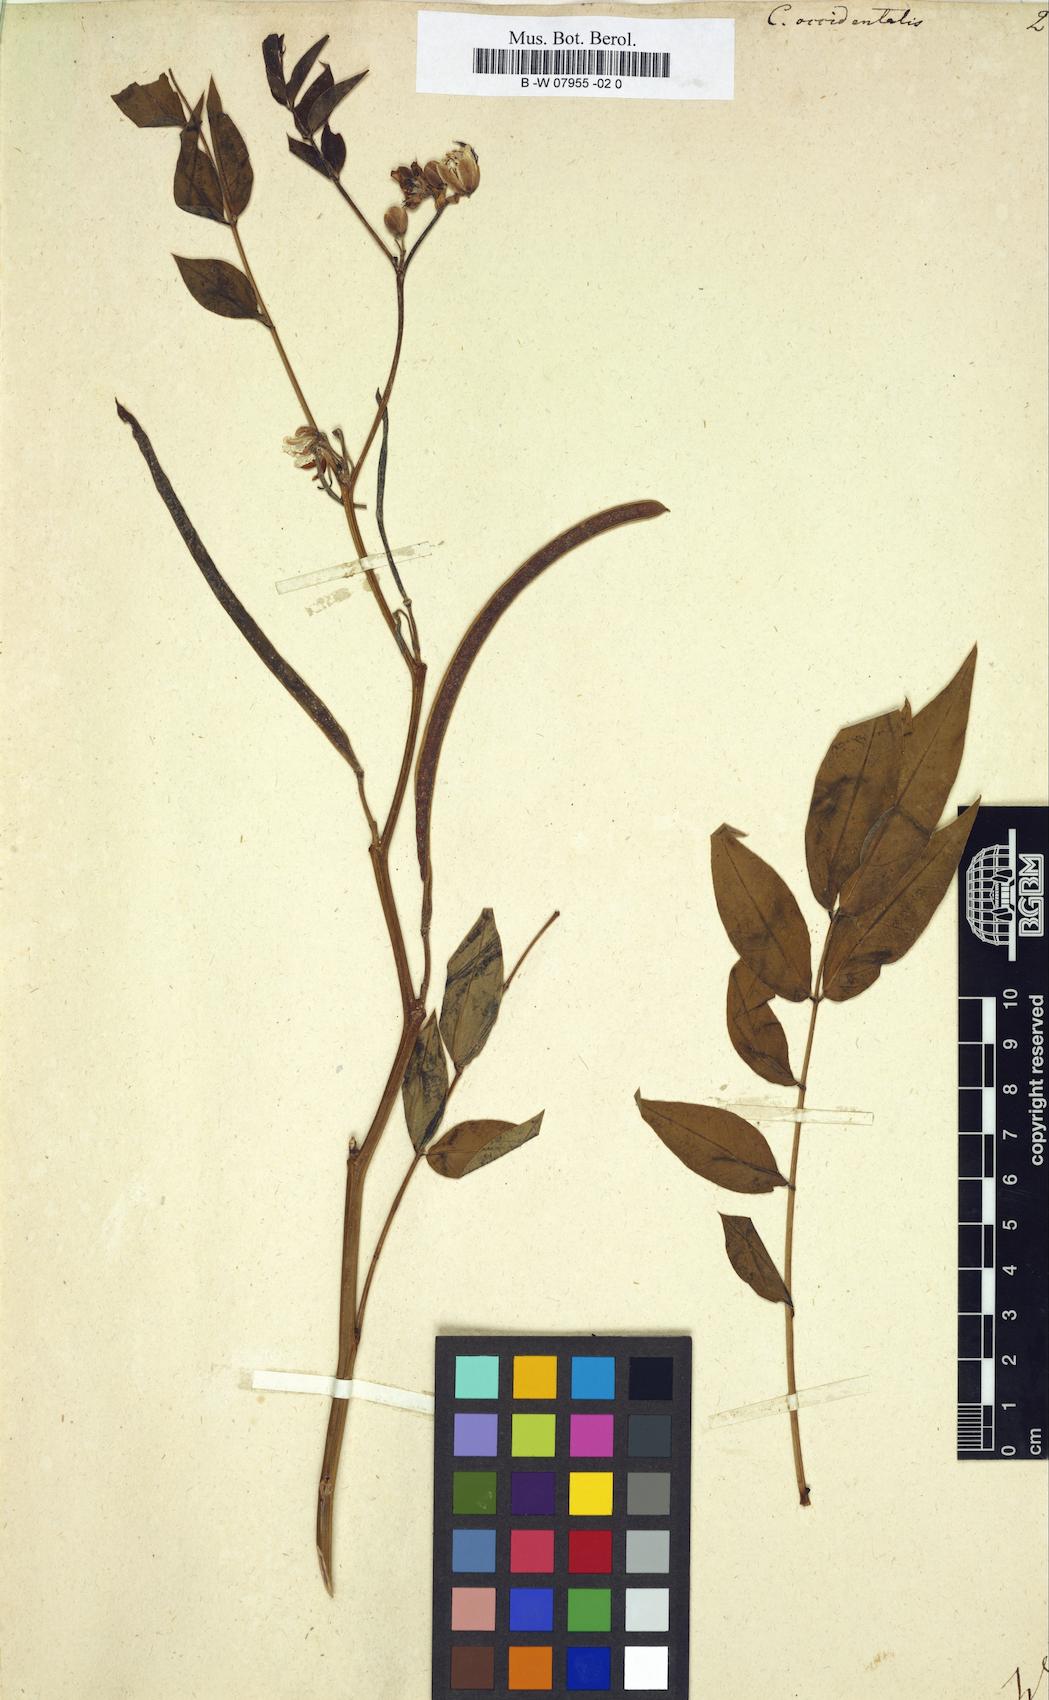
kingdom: Plantae
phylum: Tracheophyta
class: Magnoliopsida
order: Fabales
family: Fabaceae
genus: Senna
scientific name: Senna occidentalis
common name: Septicweed
